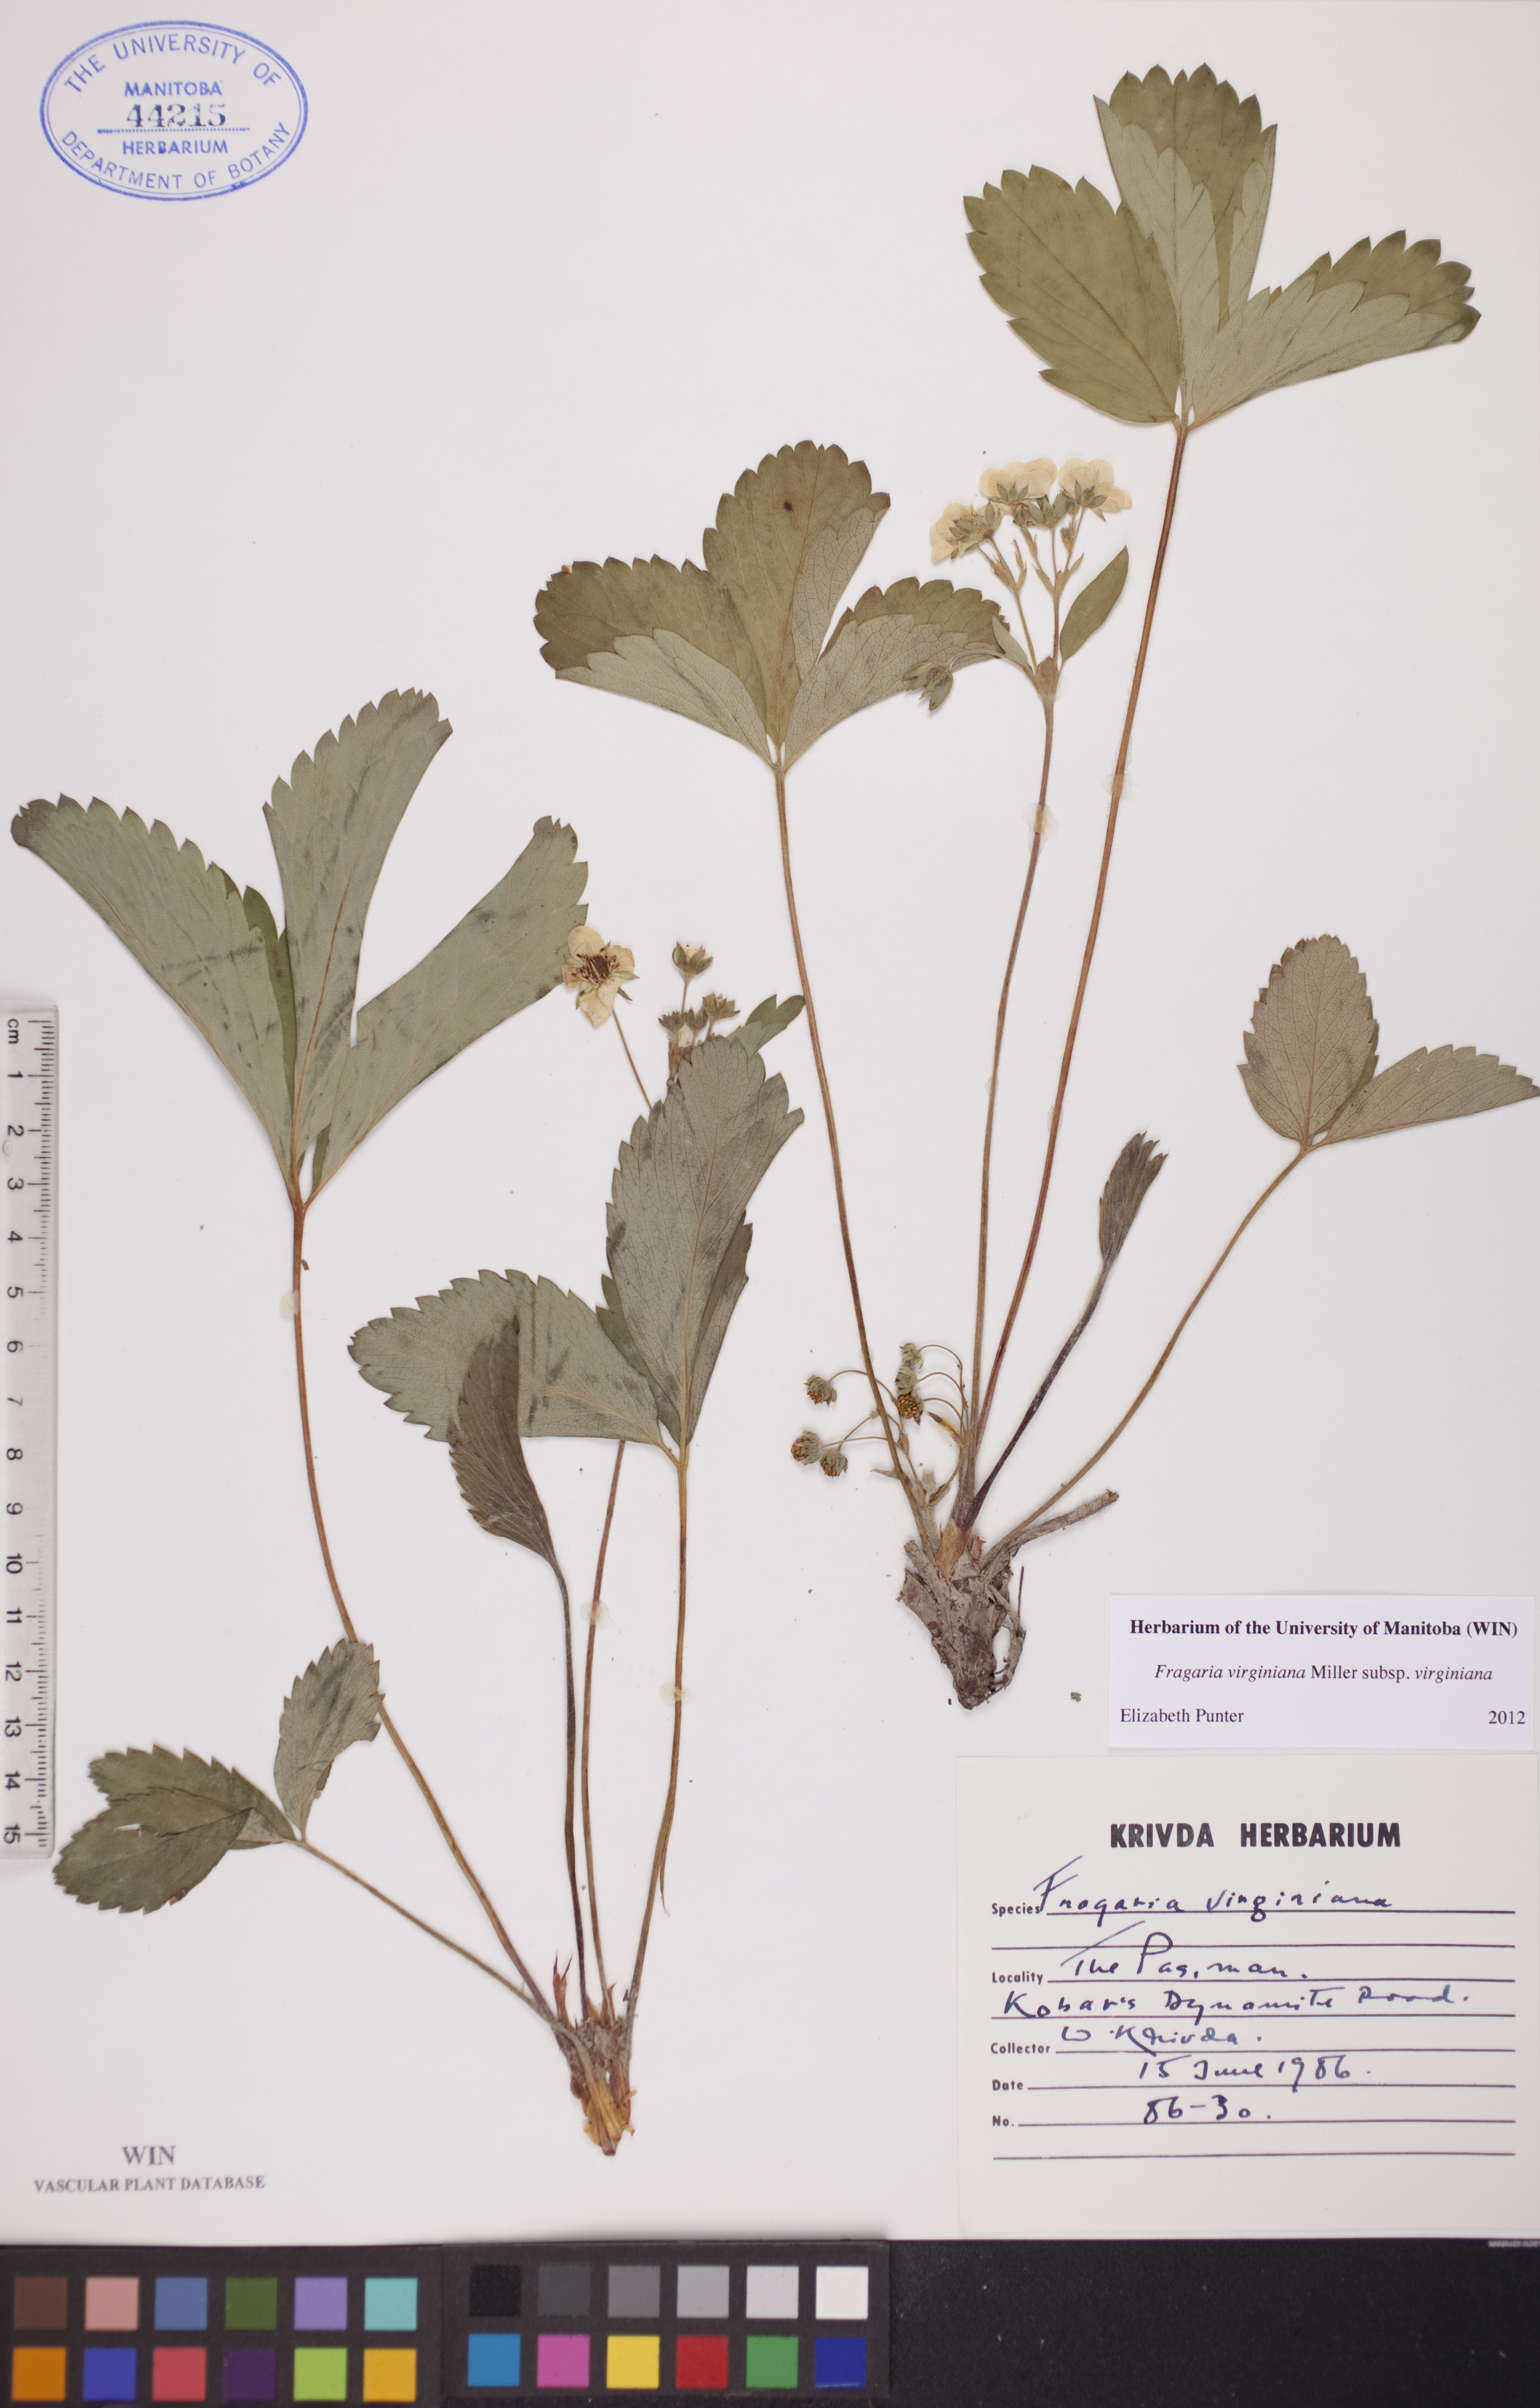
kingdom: Plantae
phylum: Tracheophyta
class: Magnoliopsida
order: Rosales
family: Rosaceae
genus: Fragaria
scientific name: Fragaria virginiana
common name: Thickleaved wild strawberry
